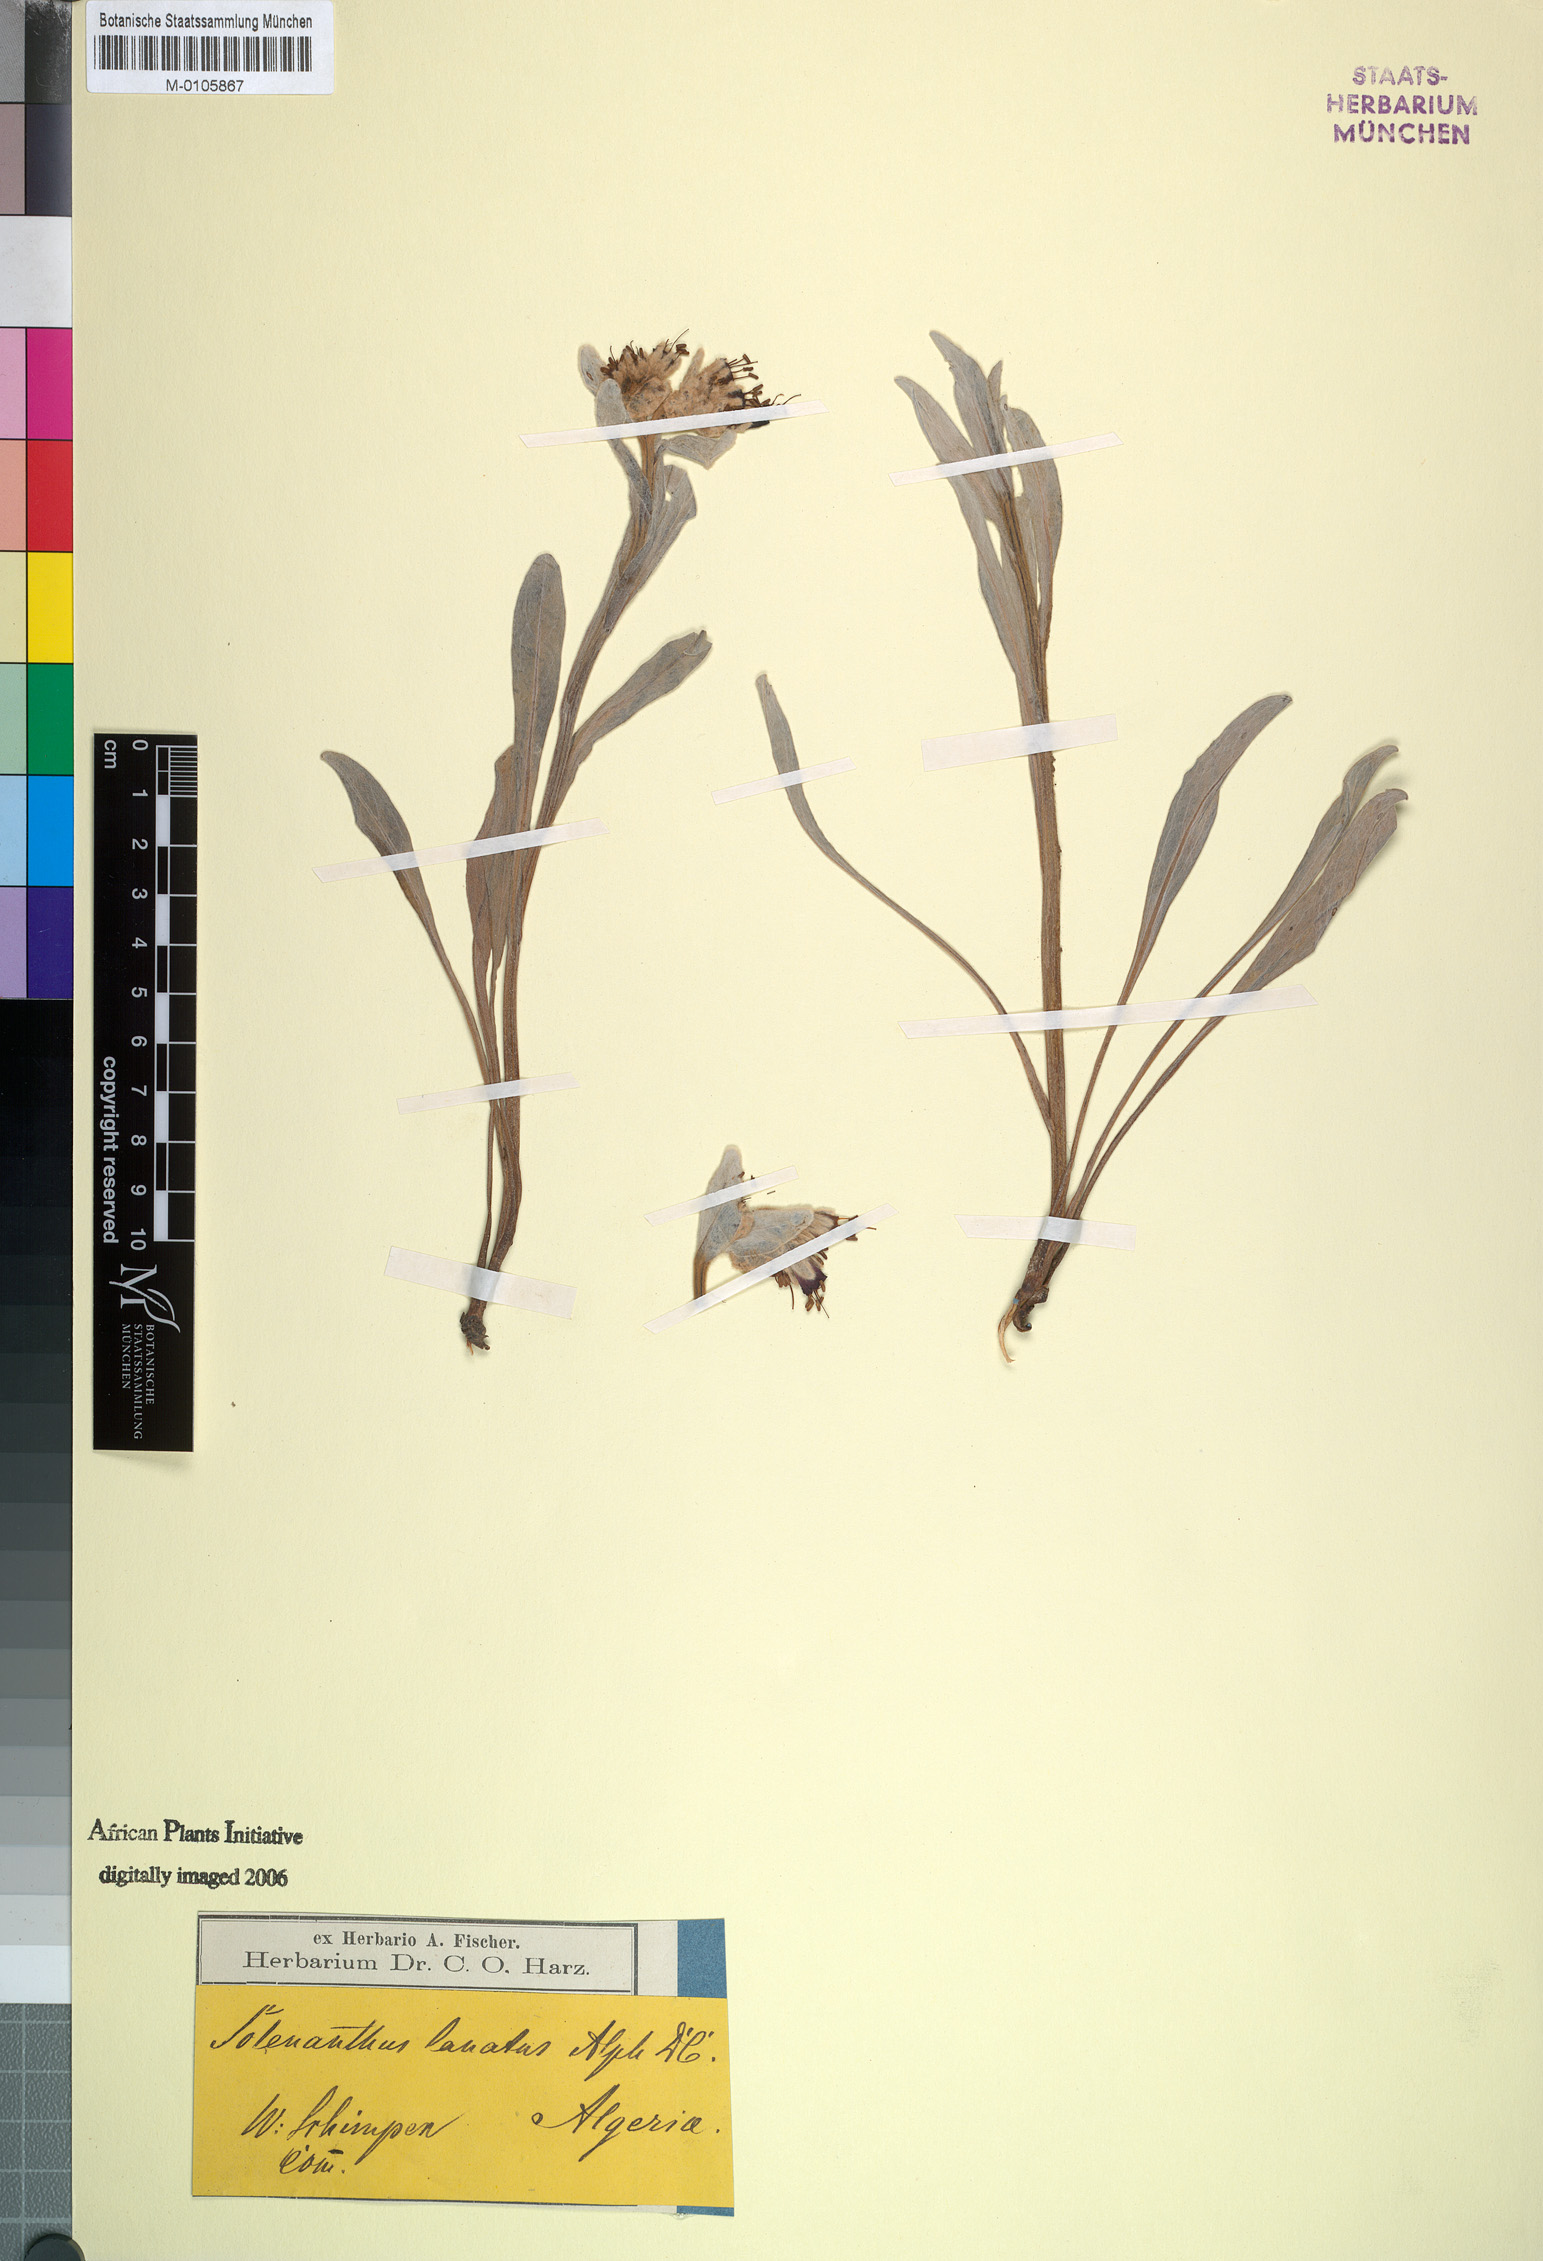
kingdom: Plantae
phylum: Tracheophyta
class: Magnoliopsida
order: Boraginales
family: Boraginaceae
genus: Pardoglossum
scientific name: Pardoglossum lanatum
